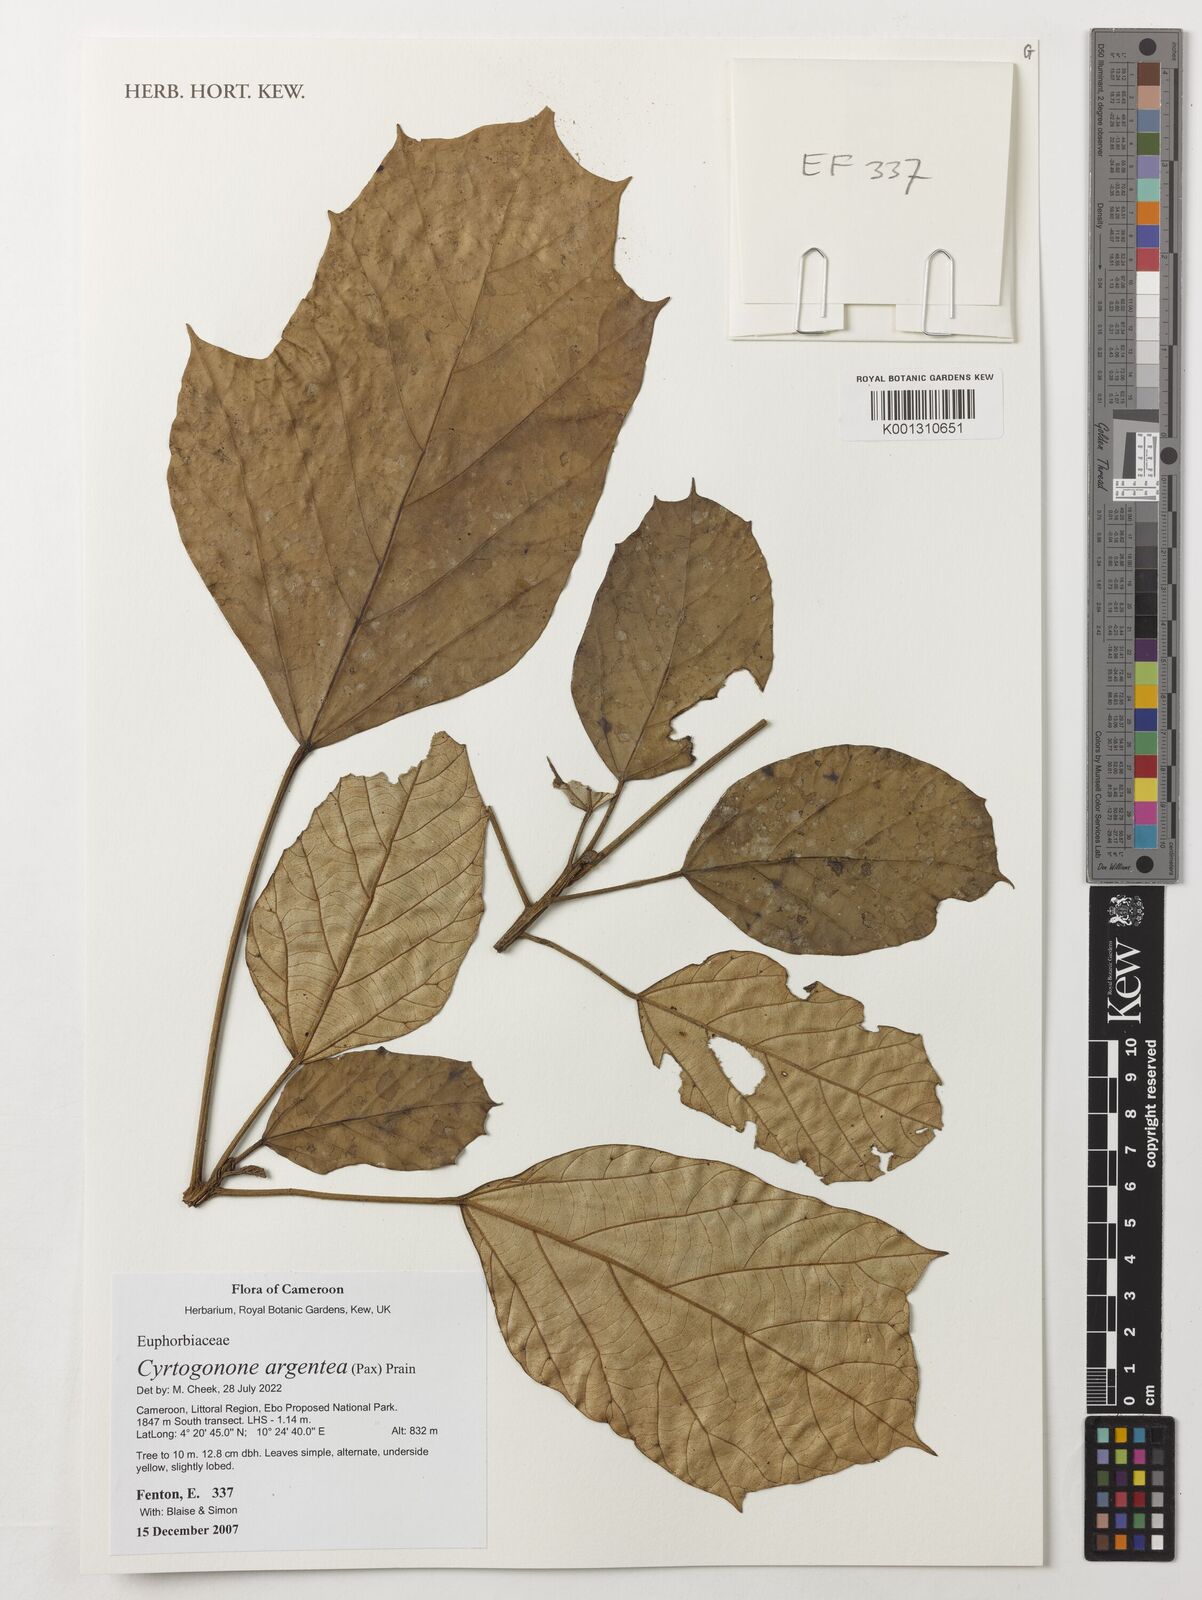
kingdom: Plantae
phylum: Tracheophyta
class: Magnoliopsida
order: Malpighiales
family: Euphorbiaceae
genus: Cyrtogonone
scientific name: Cyrtogonone argentea
